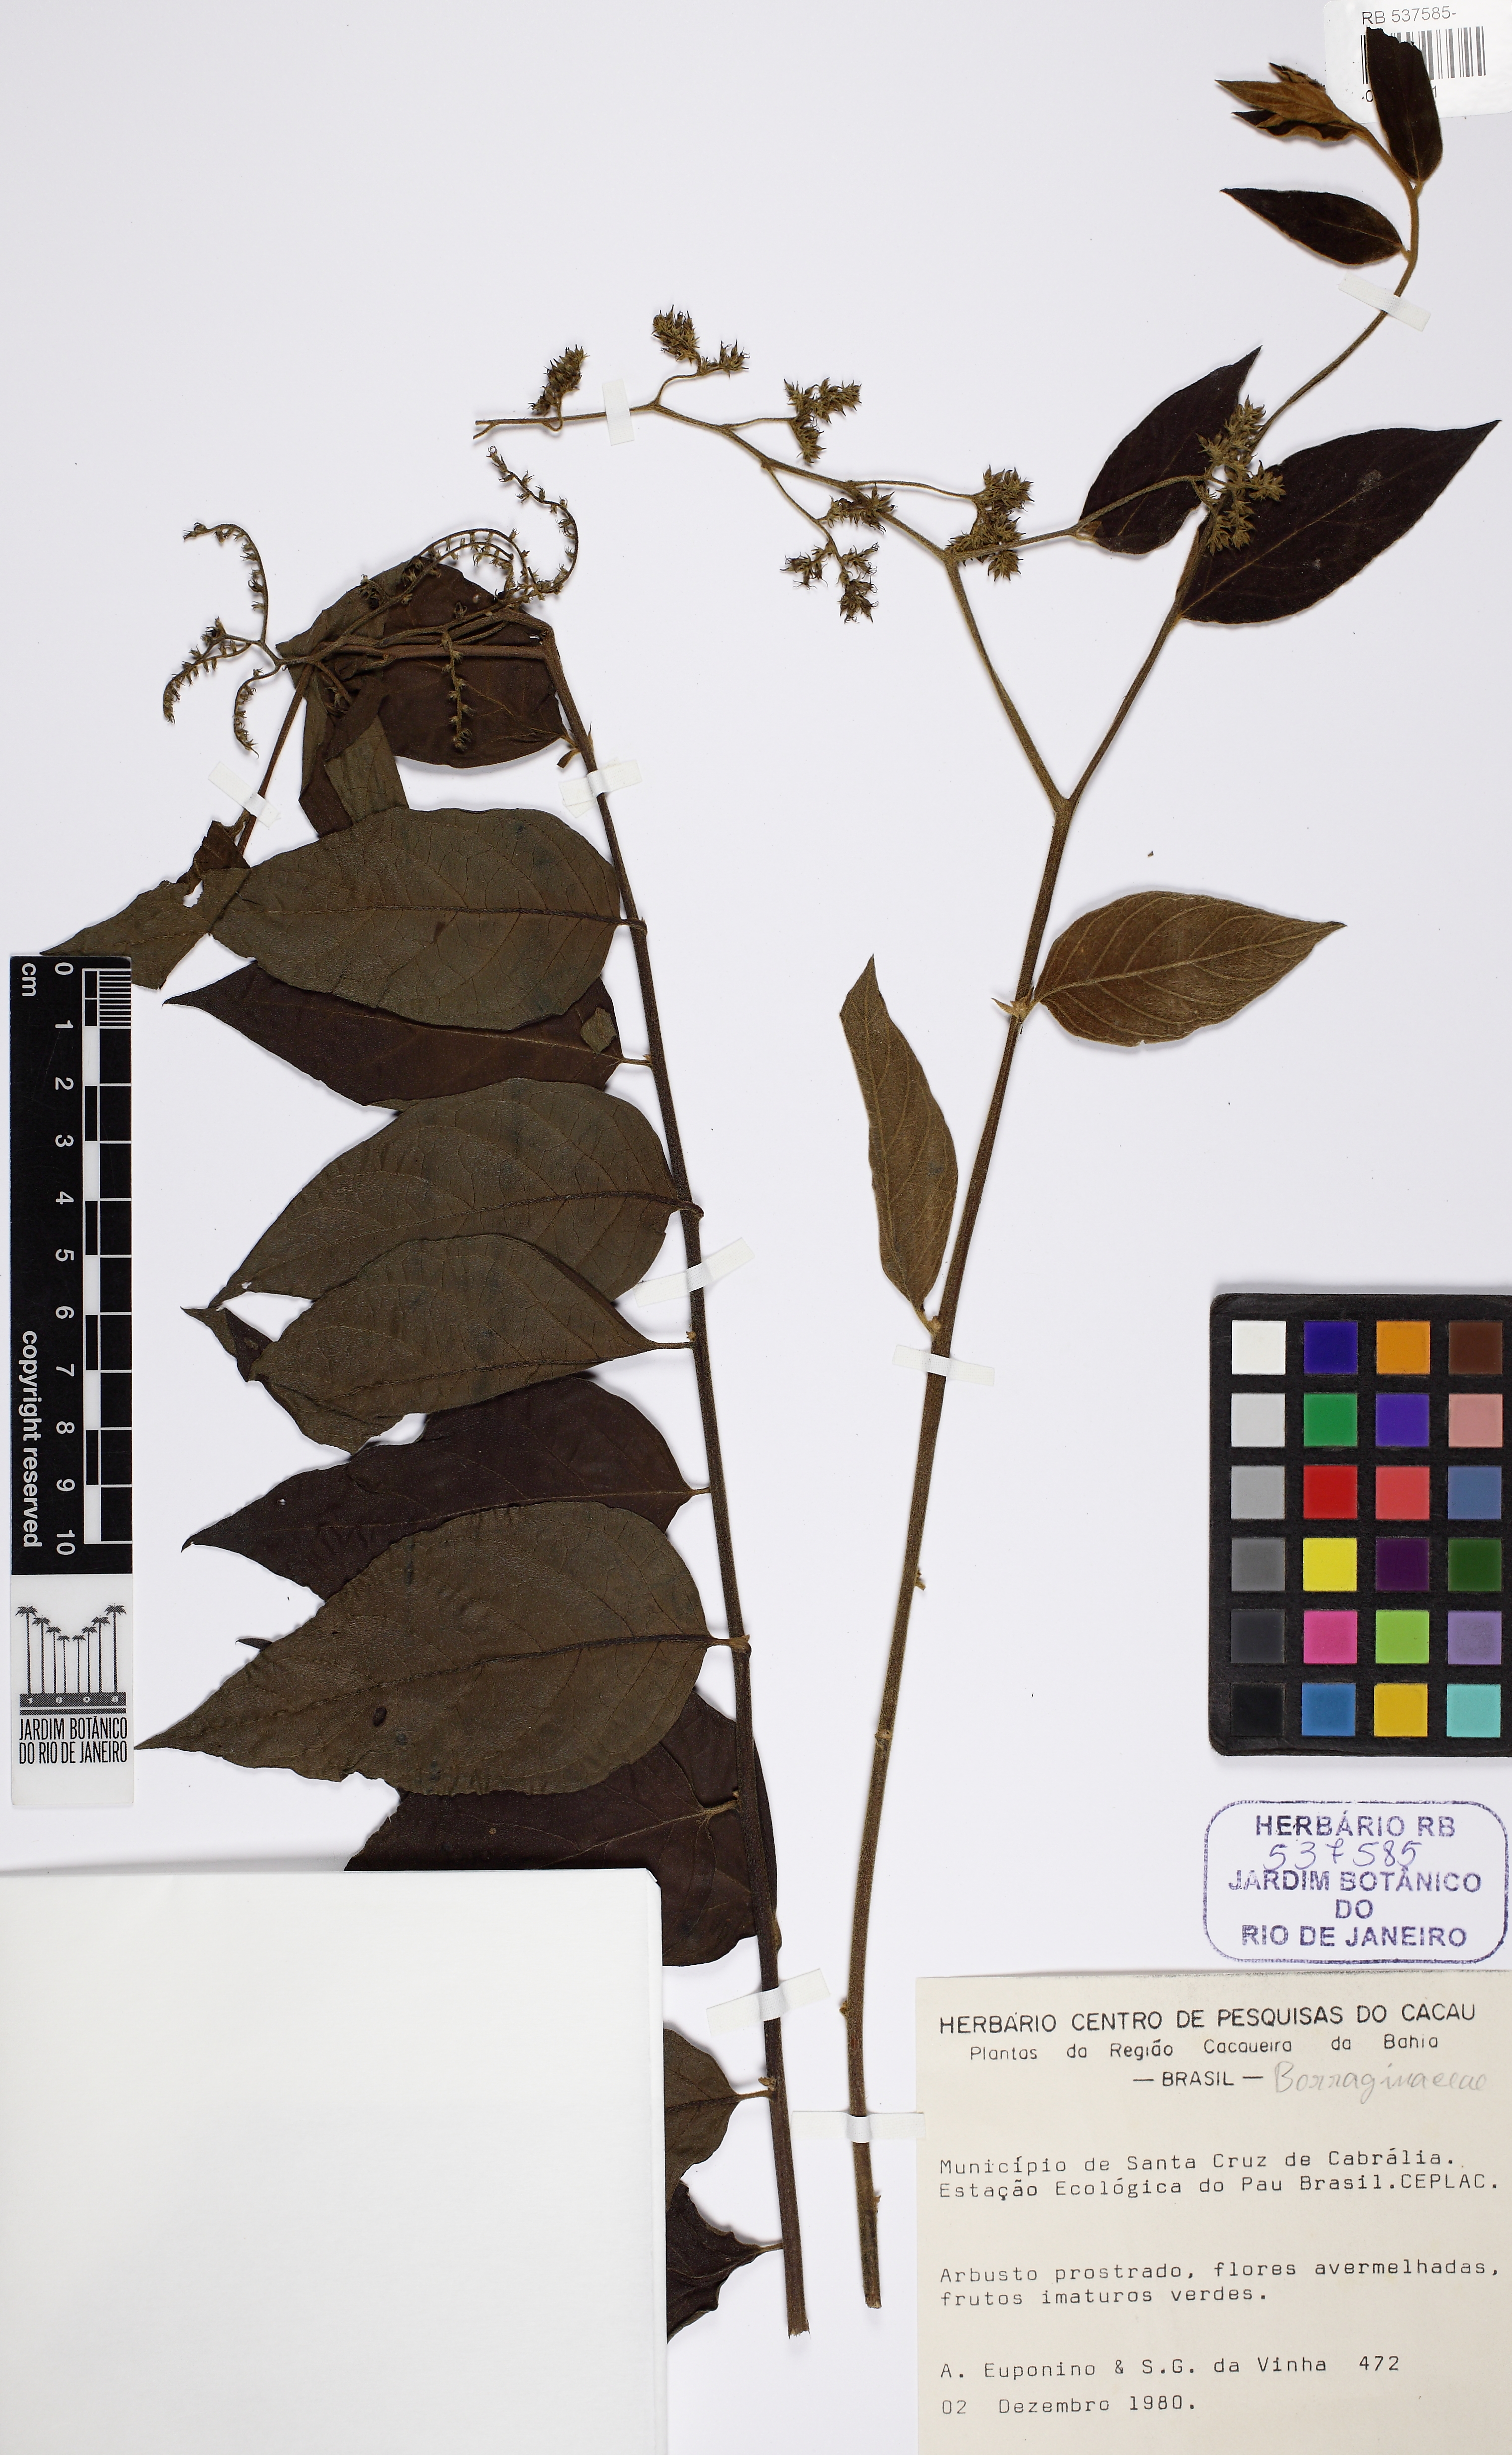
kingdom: Plantae
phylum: Tracheophyta
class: Magnoliopsida
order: Boraginales
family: Heliotropiaceae
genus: Tournefortia
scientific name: Tournefortia villosa
